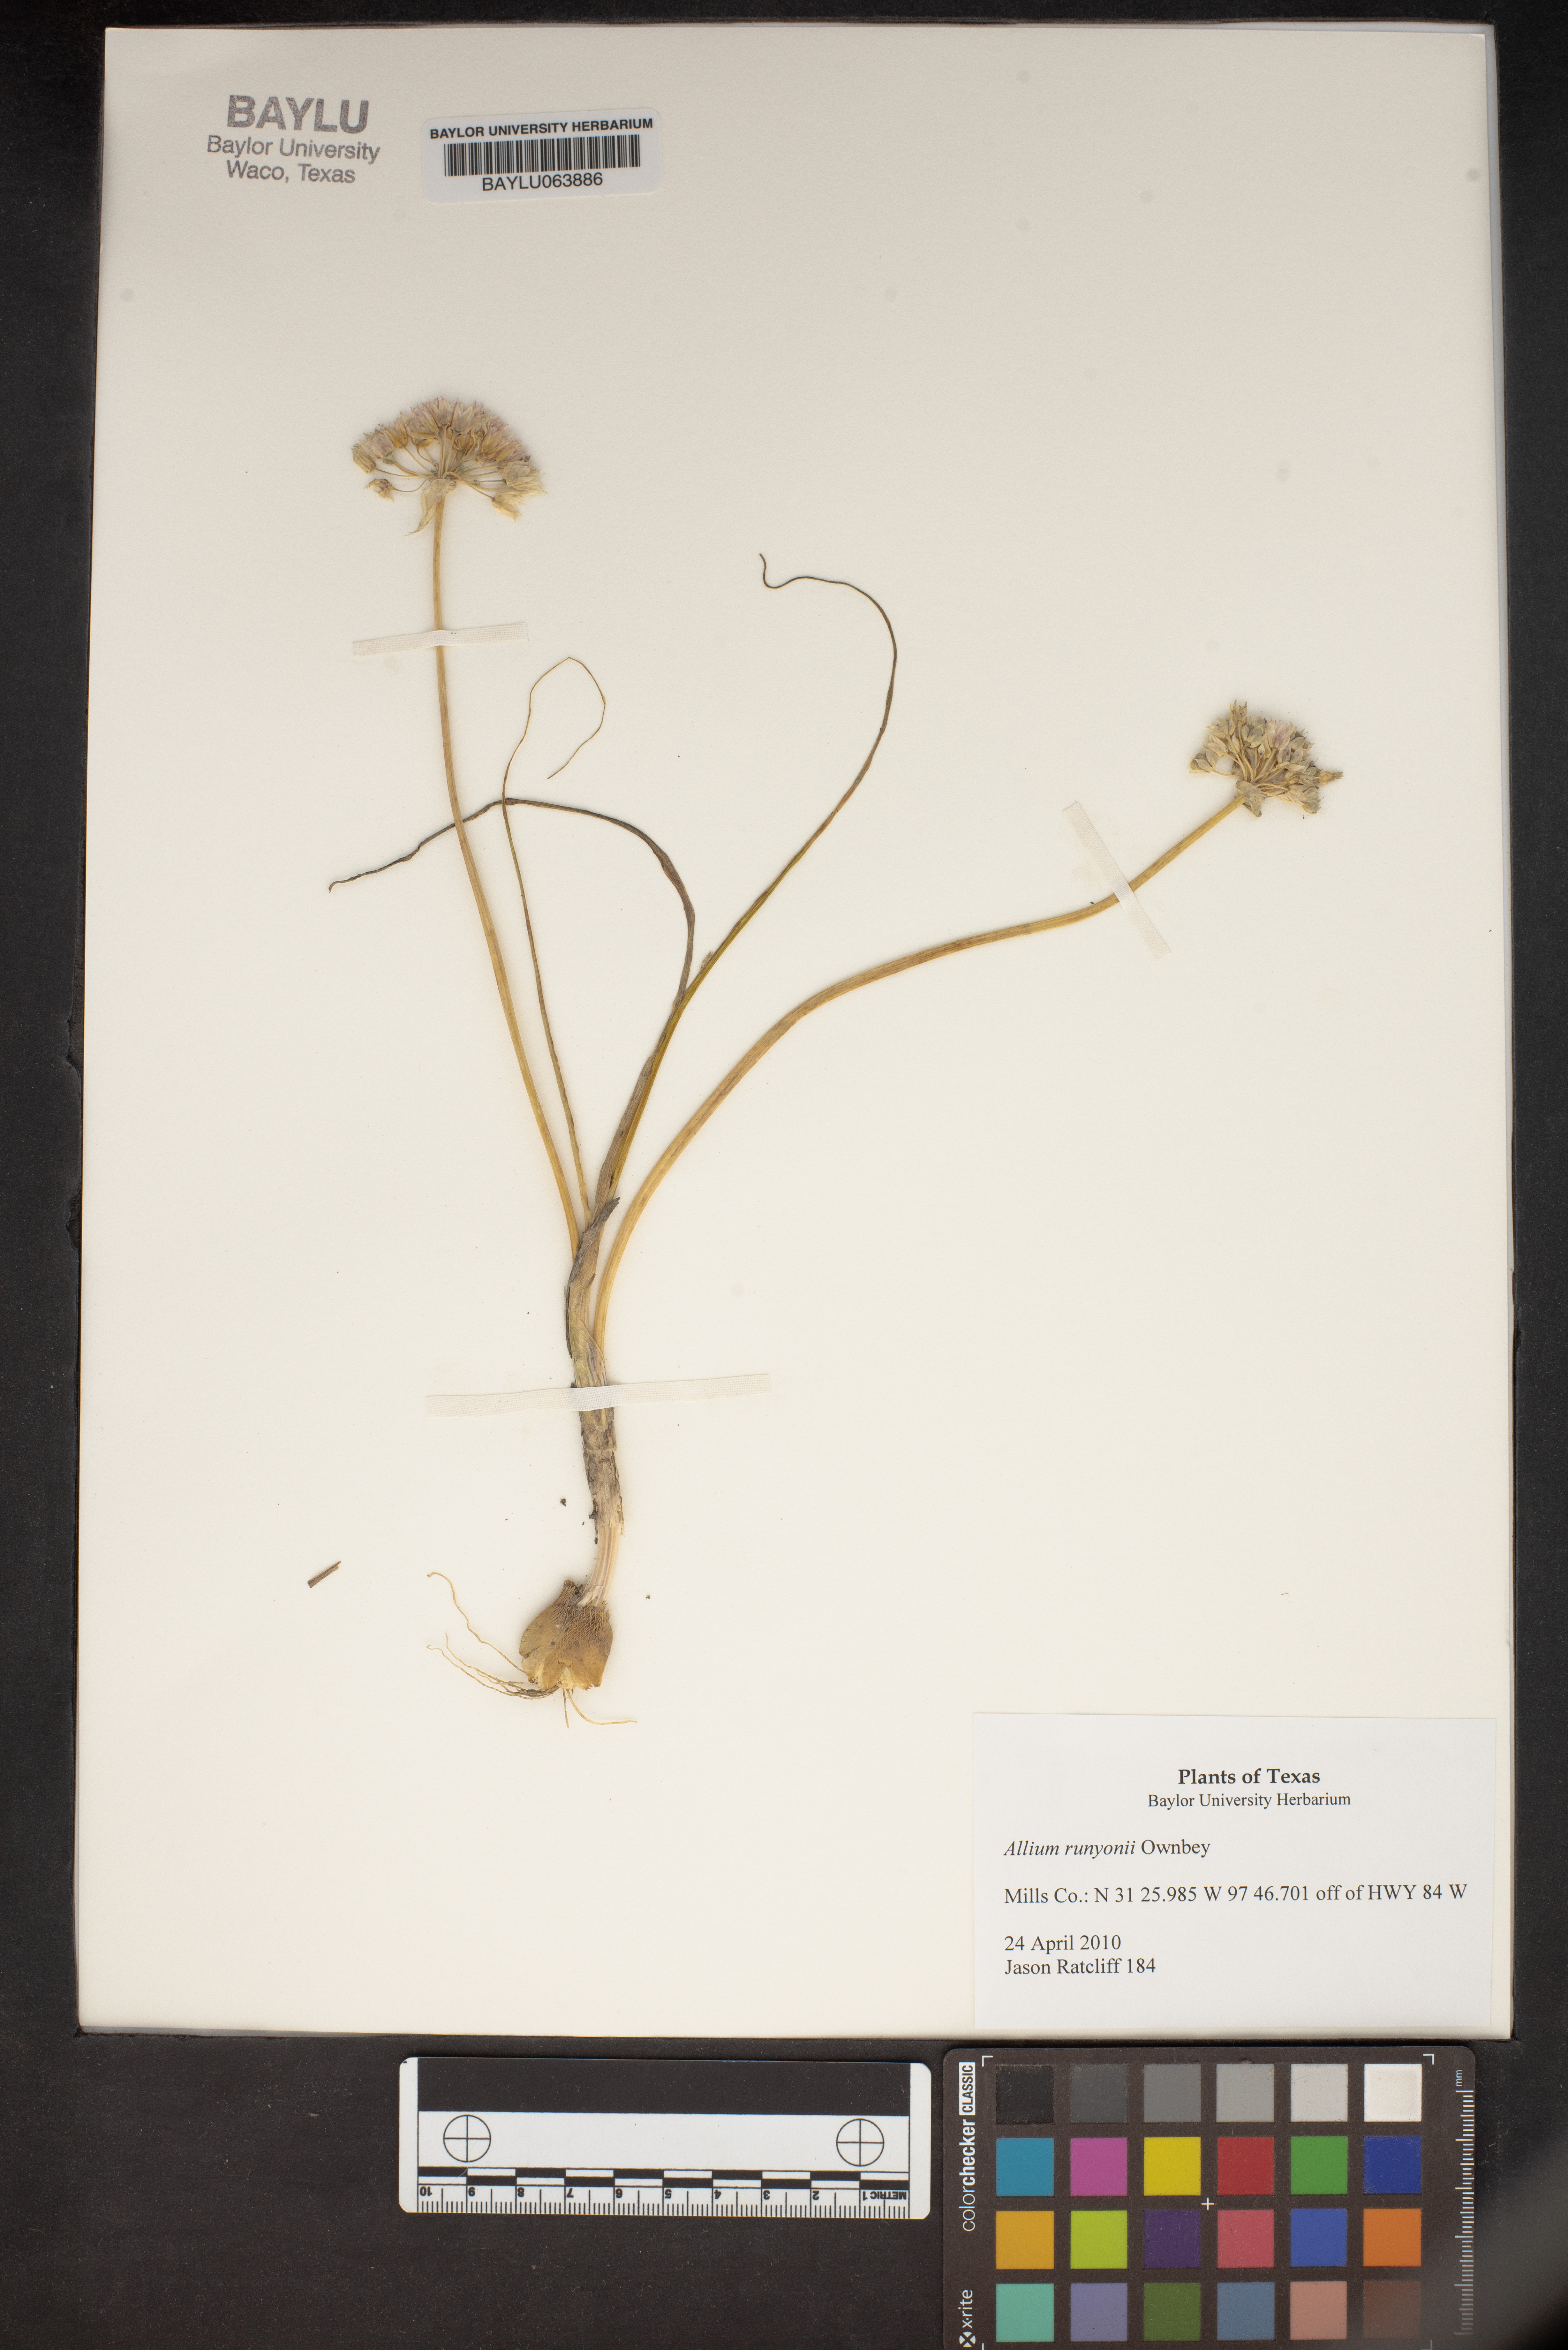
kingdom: Plantae
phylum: Tracheophyta
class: Liliopsida
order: Asparagales
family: Amaryllidaceae
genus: Allium
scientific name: Allium runyonii
